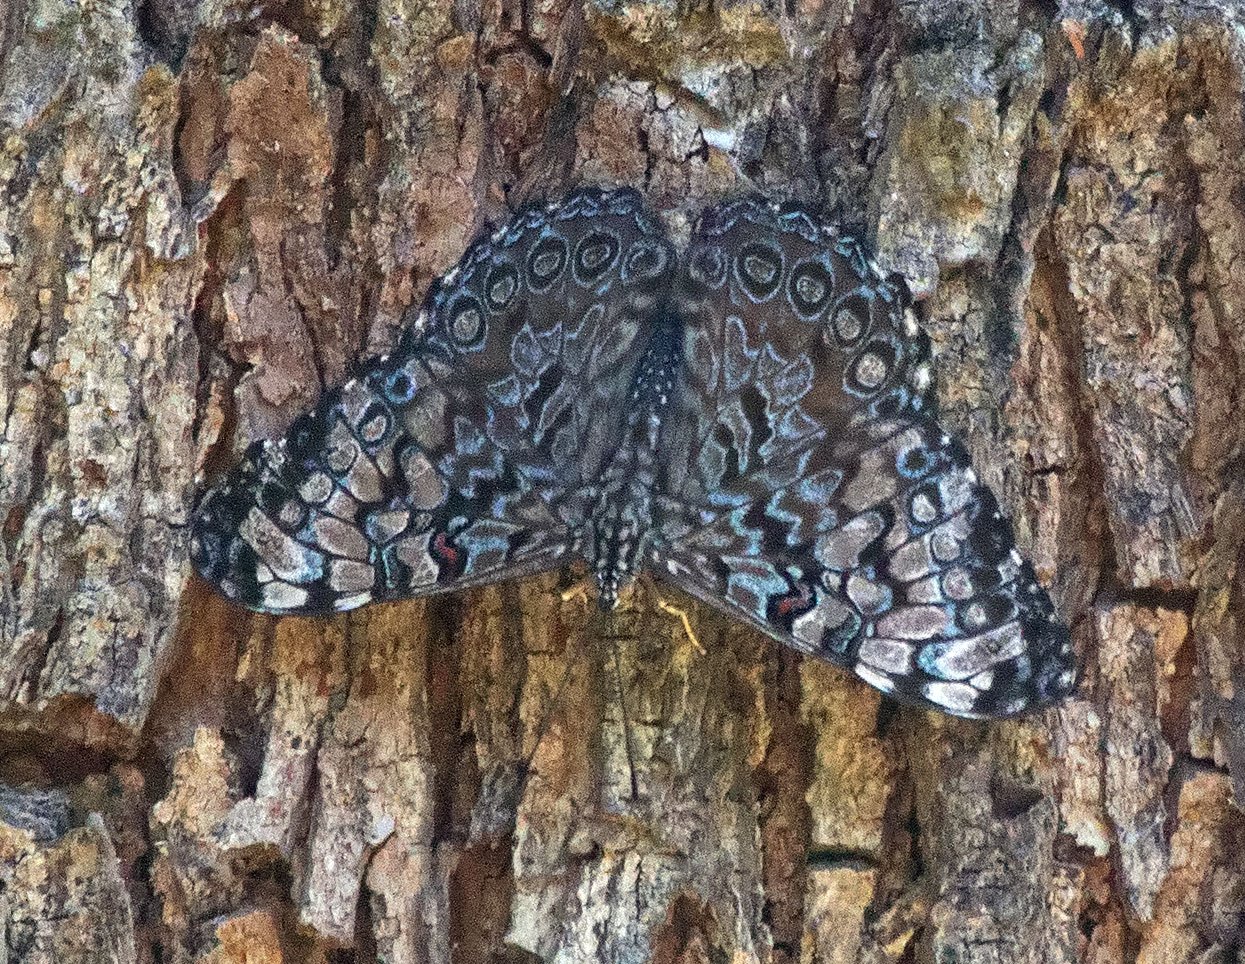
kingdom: Animalia
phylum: Arthropoda
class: Insecta
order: Lepidoptera
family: Nymphalidae
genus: Hamadryas
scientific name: Hamadryas guatemalena
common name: Guatemalan Cracker
